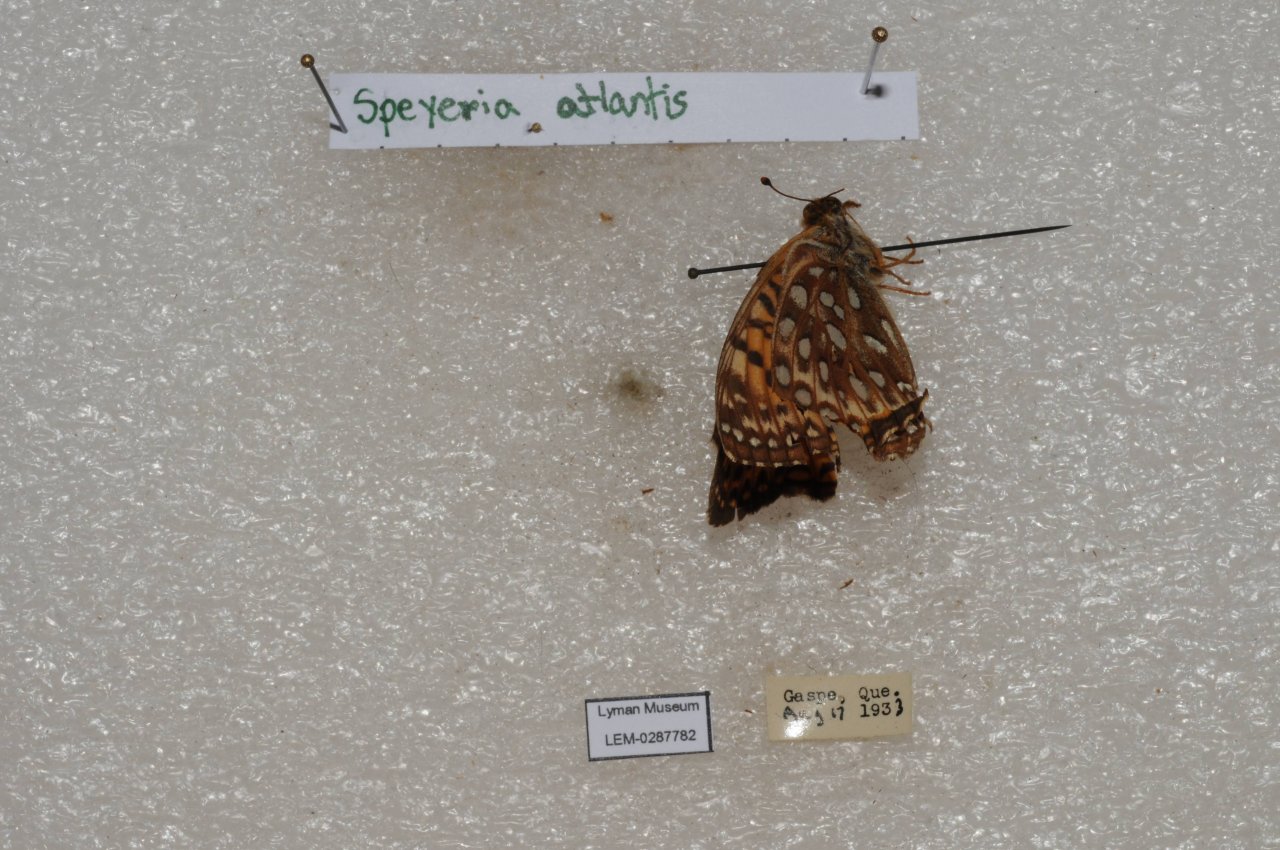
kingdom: Animalia
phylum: Arthropoda
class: Insecta
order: Lepidoptera
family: Nymphalidae
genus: Speyeria
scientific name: Speyeria atlantis
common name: Atlantis Fritillary
